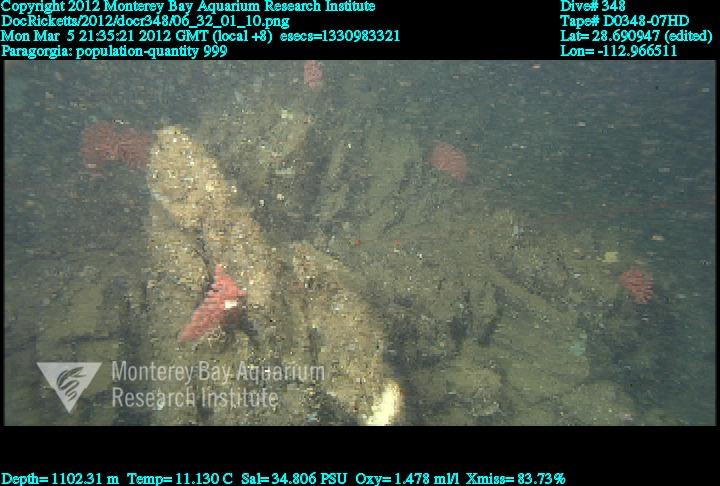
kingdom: Animalia
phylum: Cnidaria
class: Anthozoa
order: Scleralcyonacea
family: Coralliidae
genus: Paragorgia
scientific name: Paragorgia
